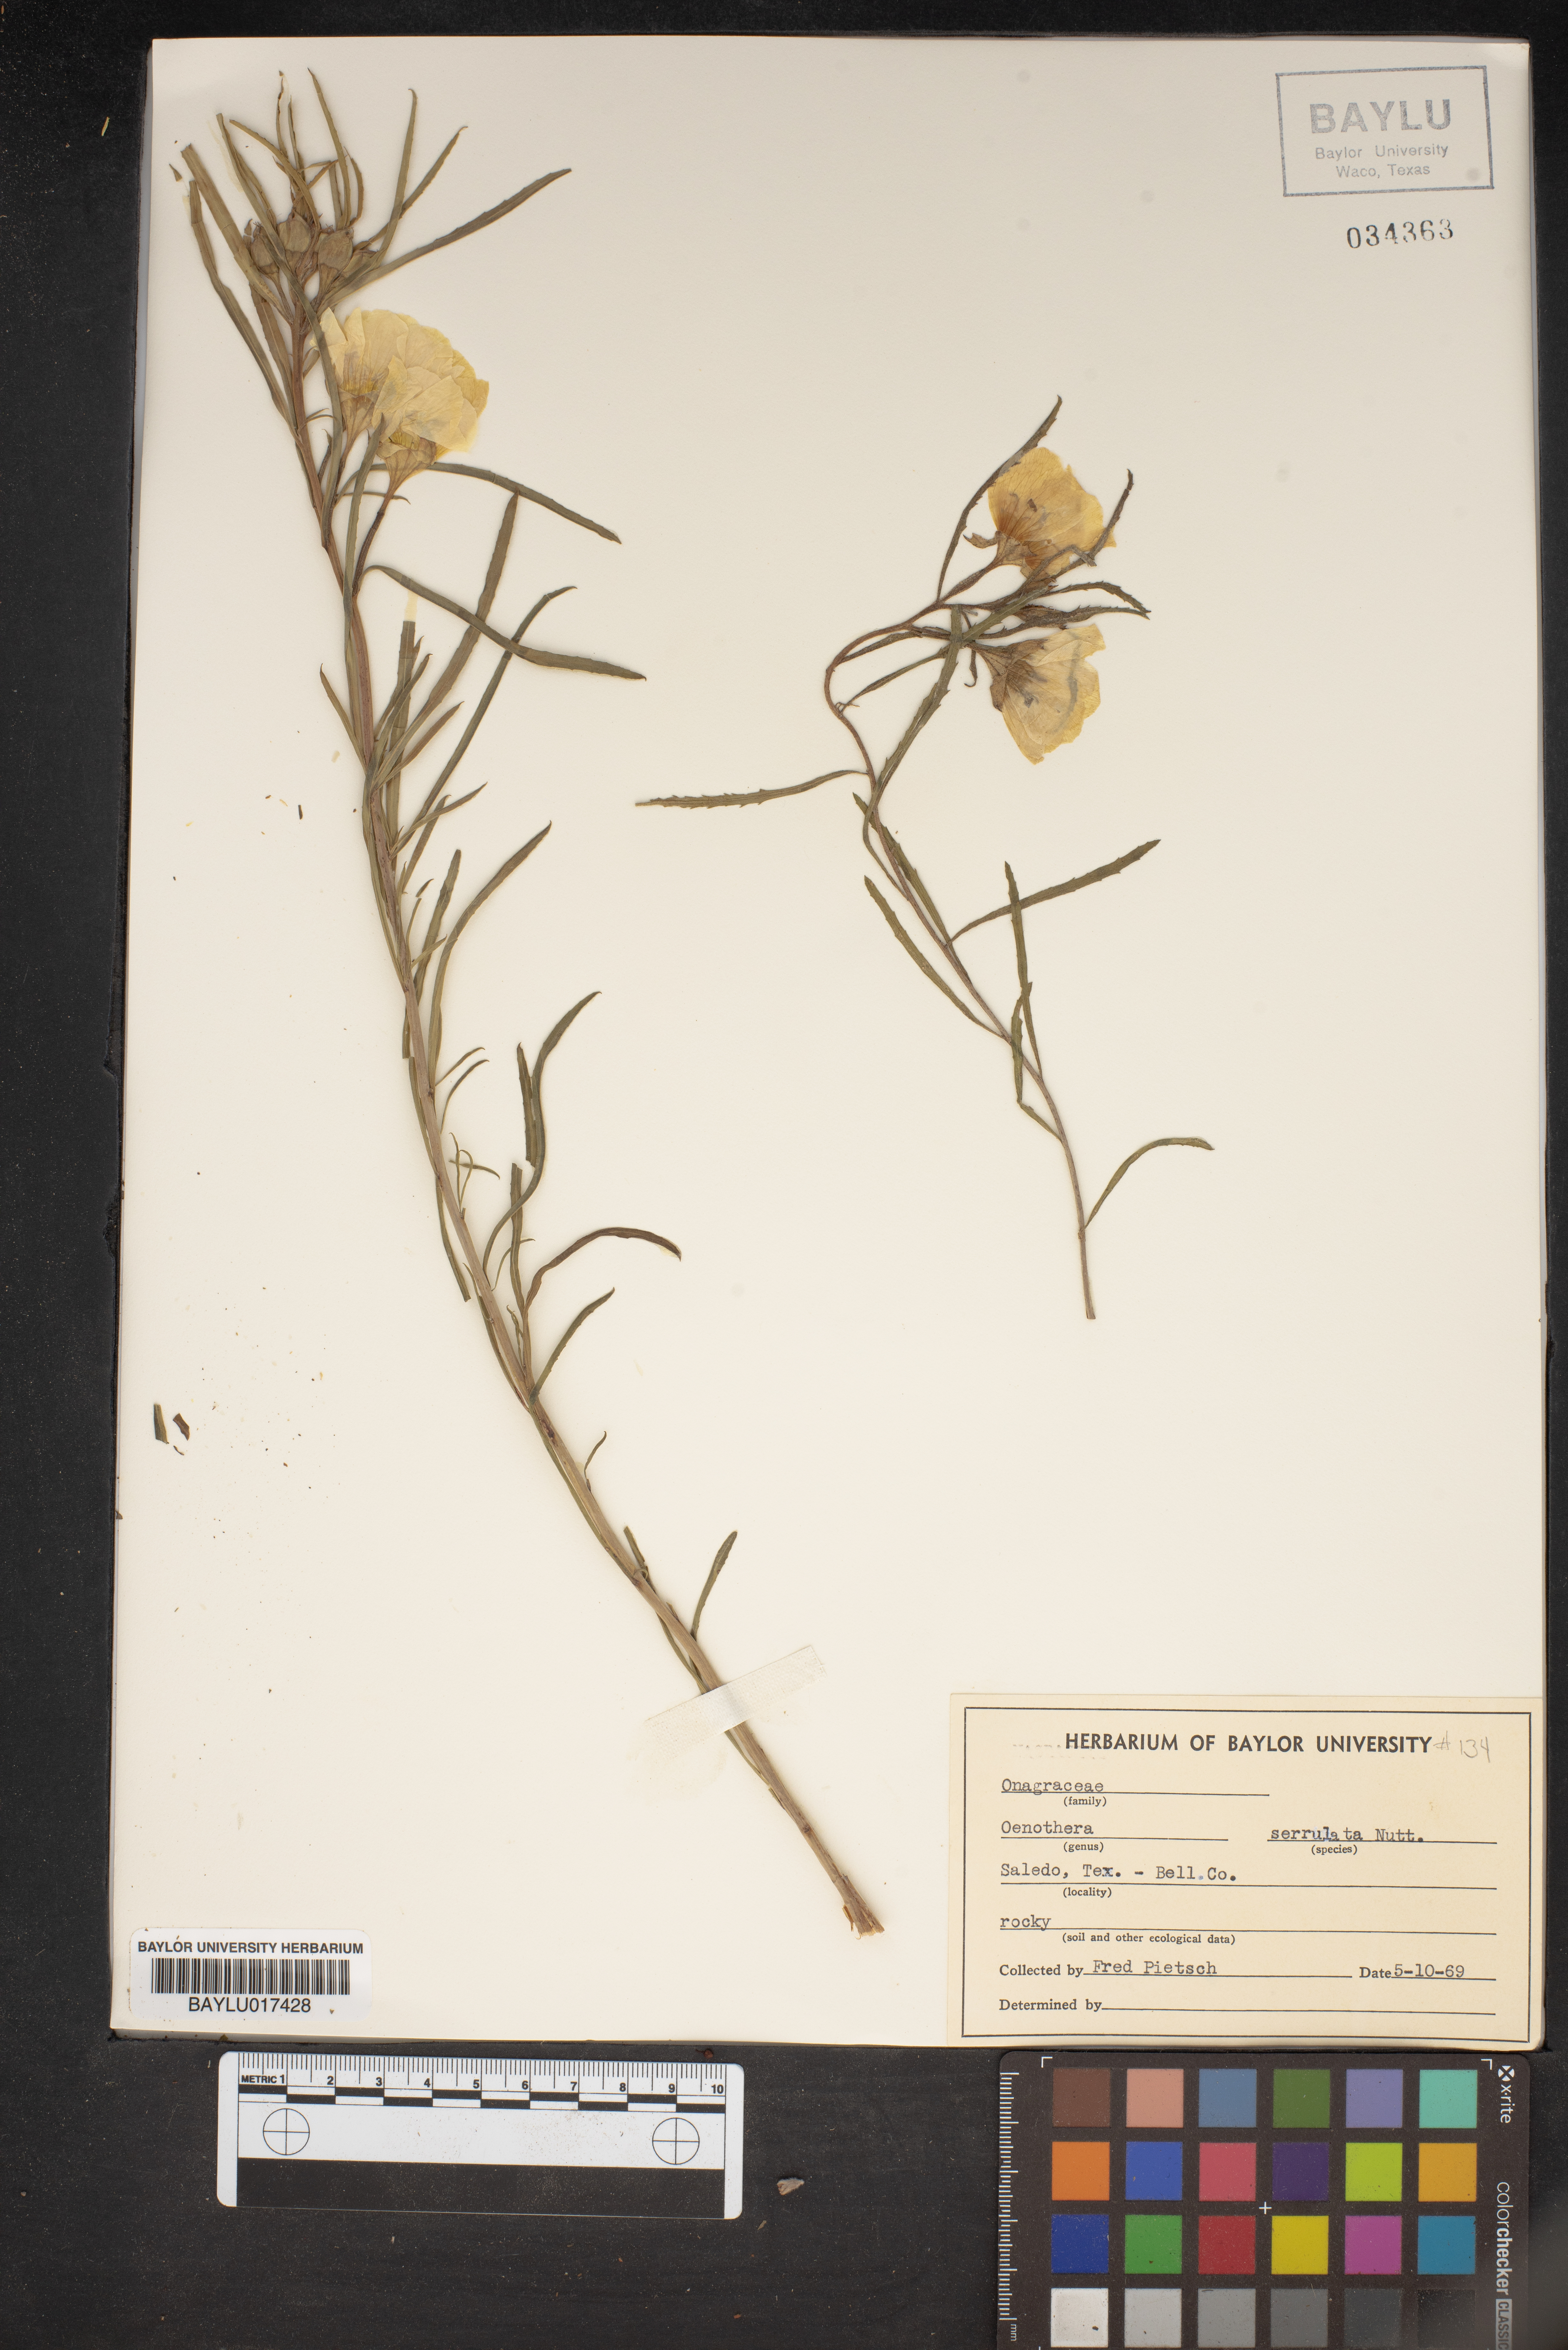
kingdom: Plantae
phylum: Tracheophyta
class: Magnoliopsida
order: Myrtales
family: Onagraceae
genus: Oenothera
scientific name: Oenothera serrulata
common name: Half-shrub calylophus
